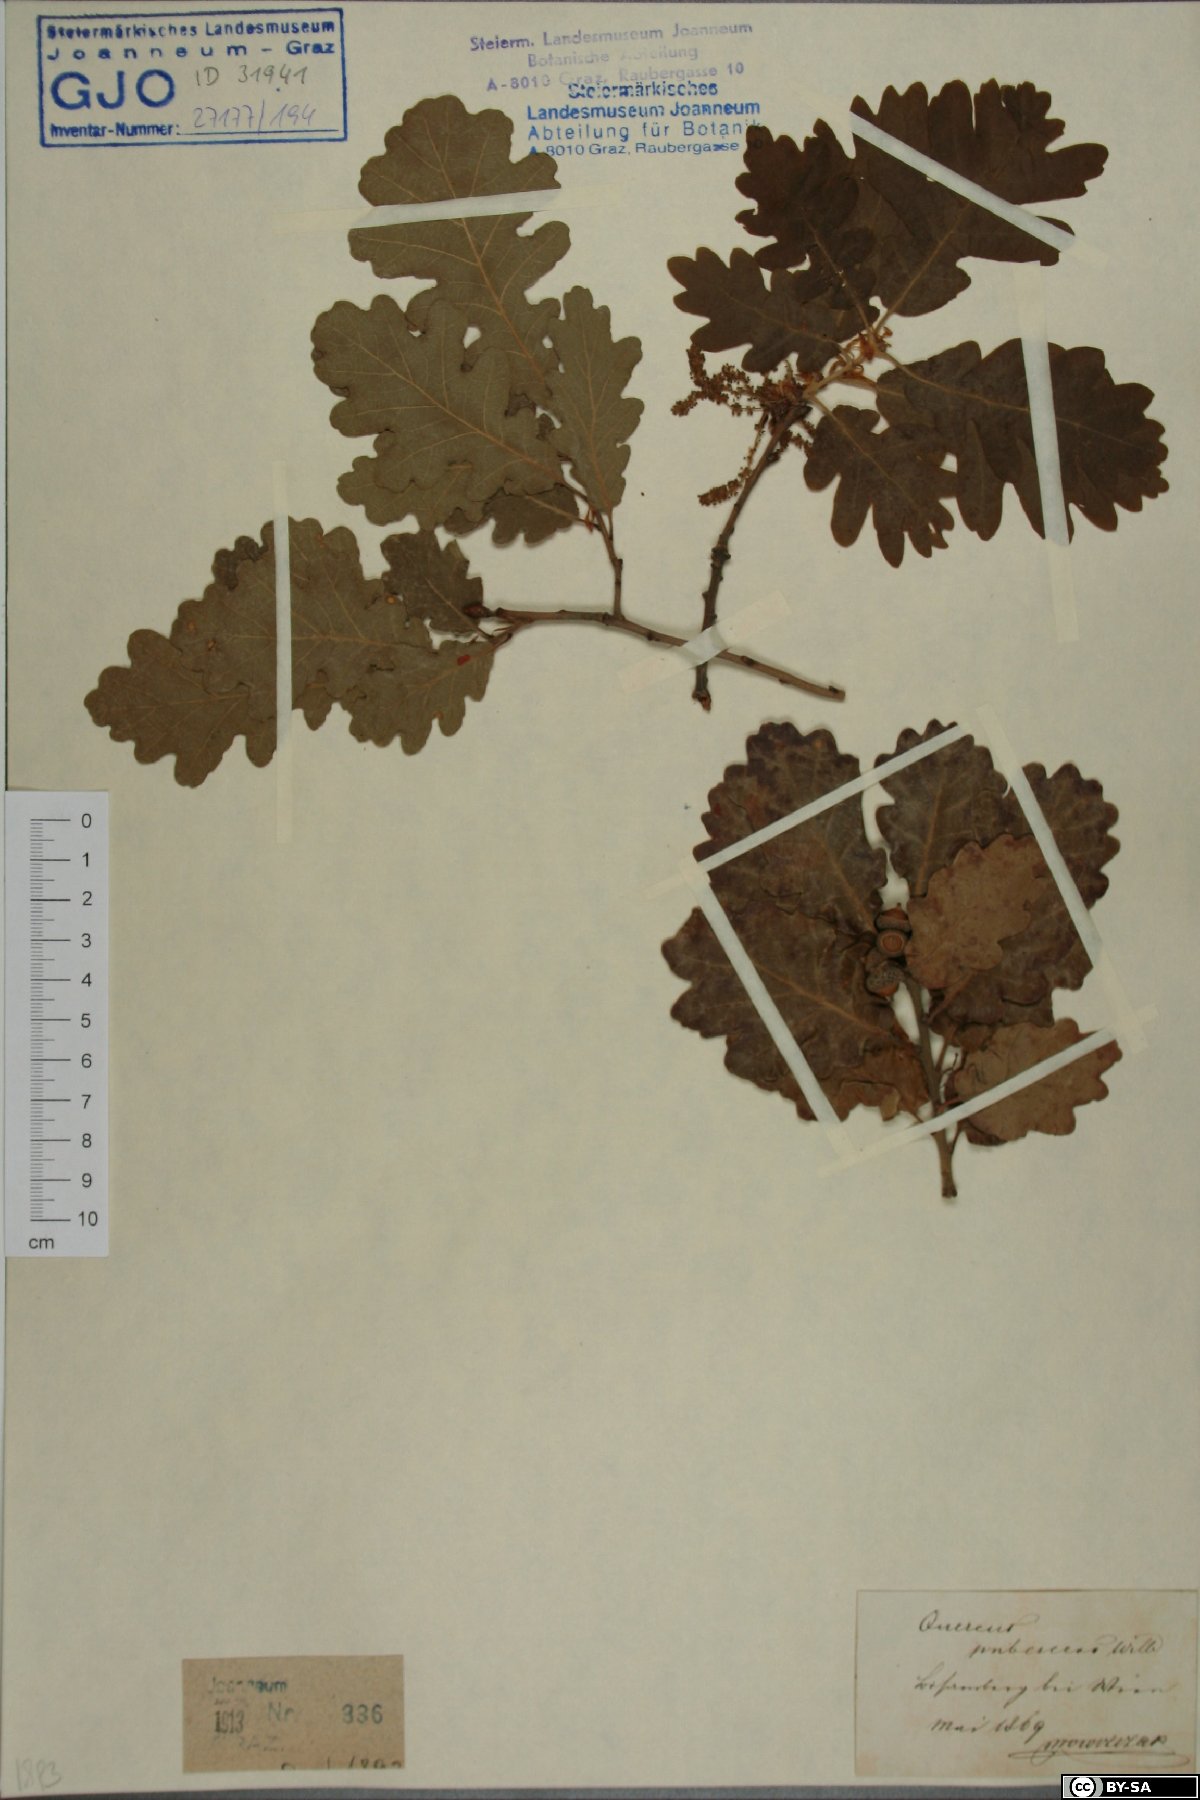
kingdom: Plantae
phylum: Tracheophyta
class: Magnoliopsida
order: Fagales
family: Fagaceae
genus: Quercus
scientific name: Quercus pubescens
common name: Downy oak
